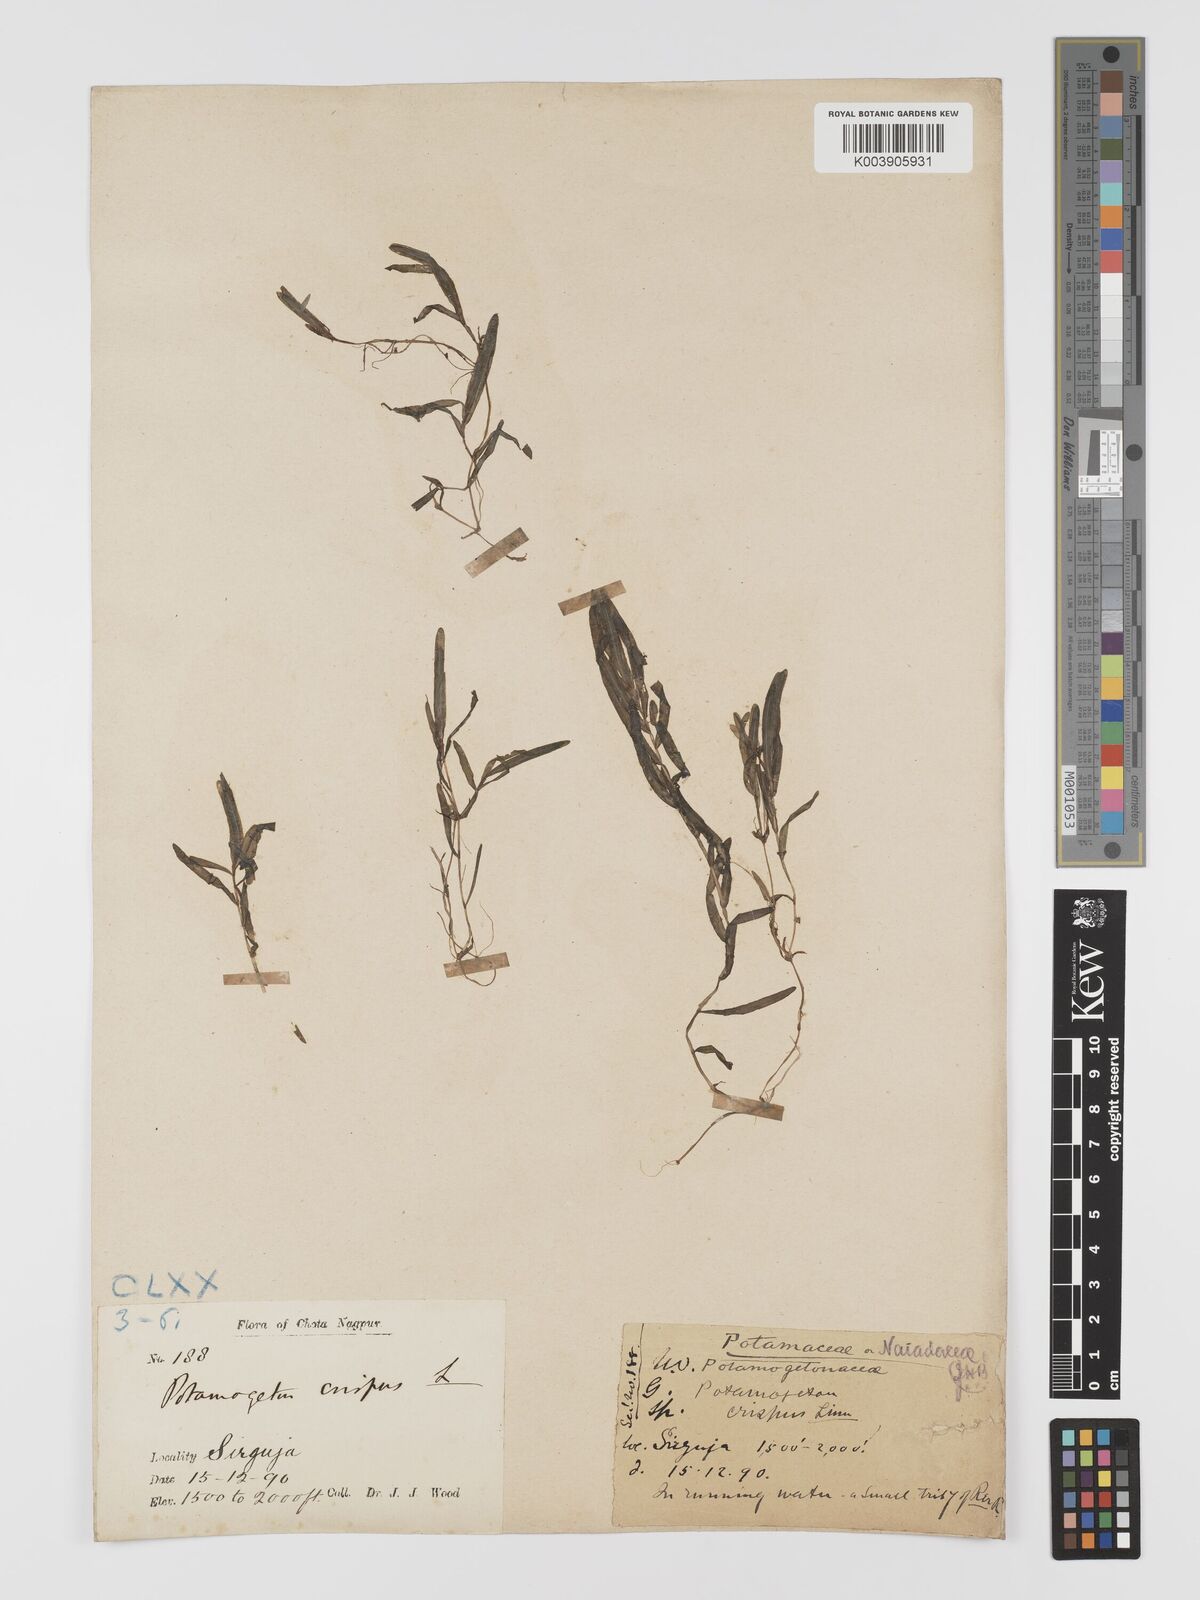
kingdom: Plantae
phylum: Tracheophyta
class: Liliopsida
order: Alismatales
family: Potamogetonaceae
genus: Potamogeton
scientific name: Potamogeton crispus
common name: Curled pondweed
